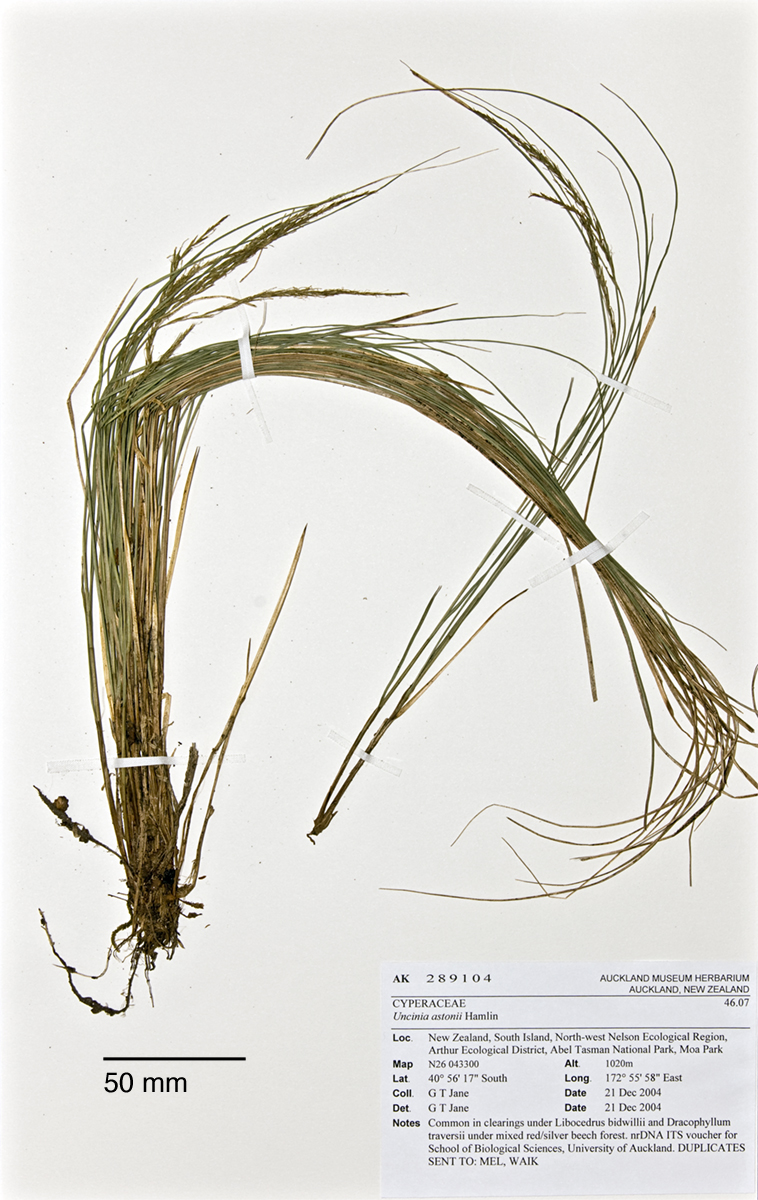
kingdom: Plantae
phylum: Tracheophyta
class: Liliopsida
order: Poales
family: Cyperaceae
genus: Carex
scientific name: Carex hamlinii
